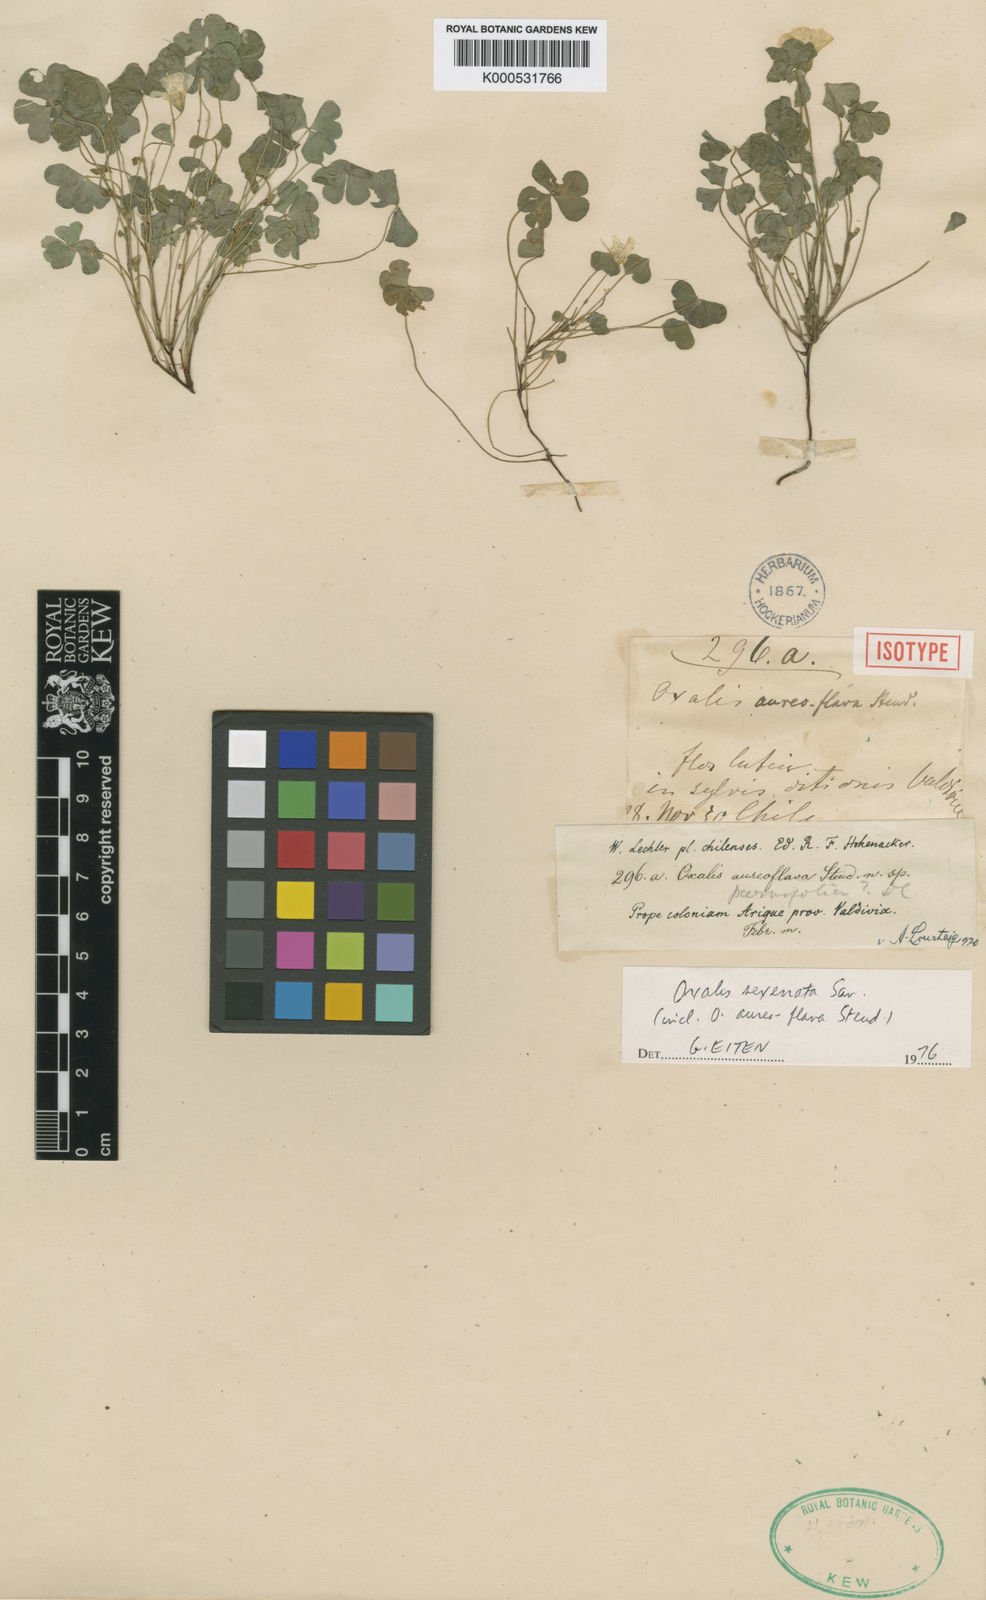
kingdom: Plantae
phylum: Tracheophyta
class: Magnoliopsida
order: Oxalidales
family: Oxalidaceae
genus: Oxalis
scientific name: Oxalis aureoflava
